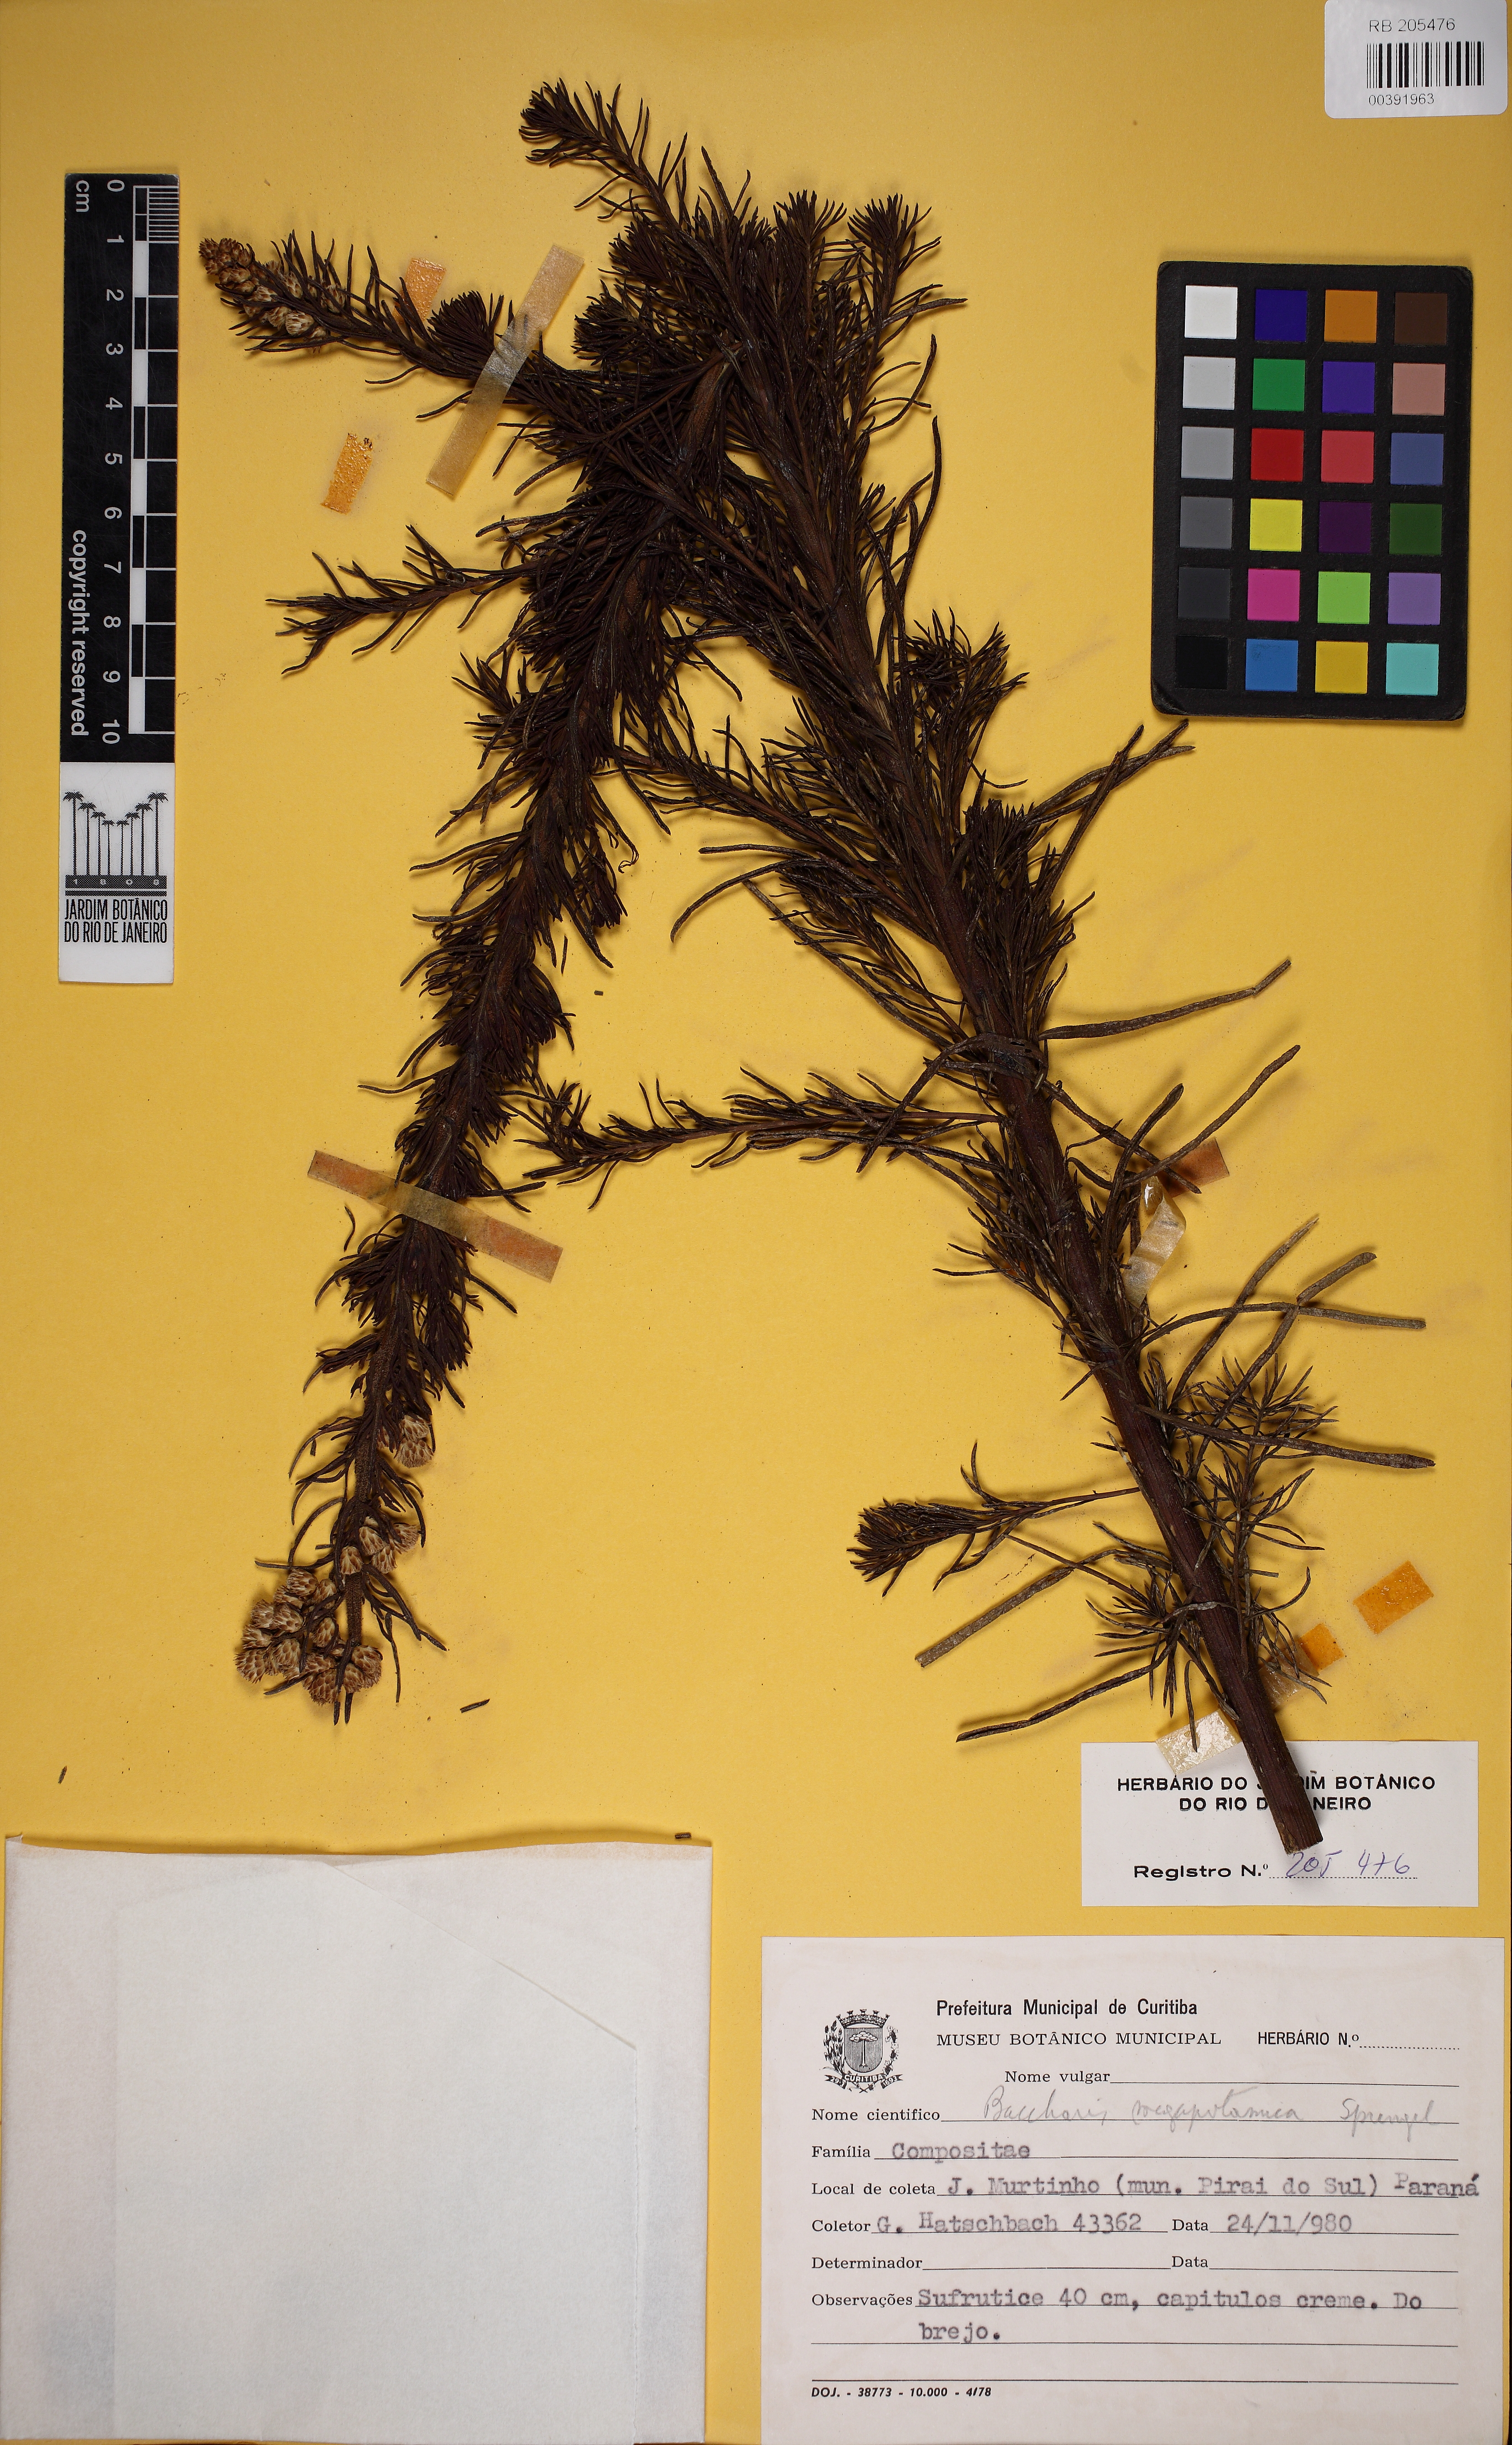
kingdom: Plantae
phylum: Tracheophyta
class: Magnoliopsida
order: Asterales
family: Asteraceae
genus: Baccharis
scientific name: Baccharis megapotamica
